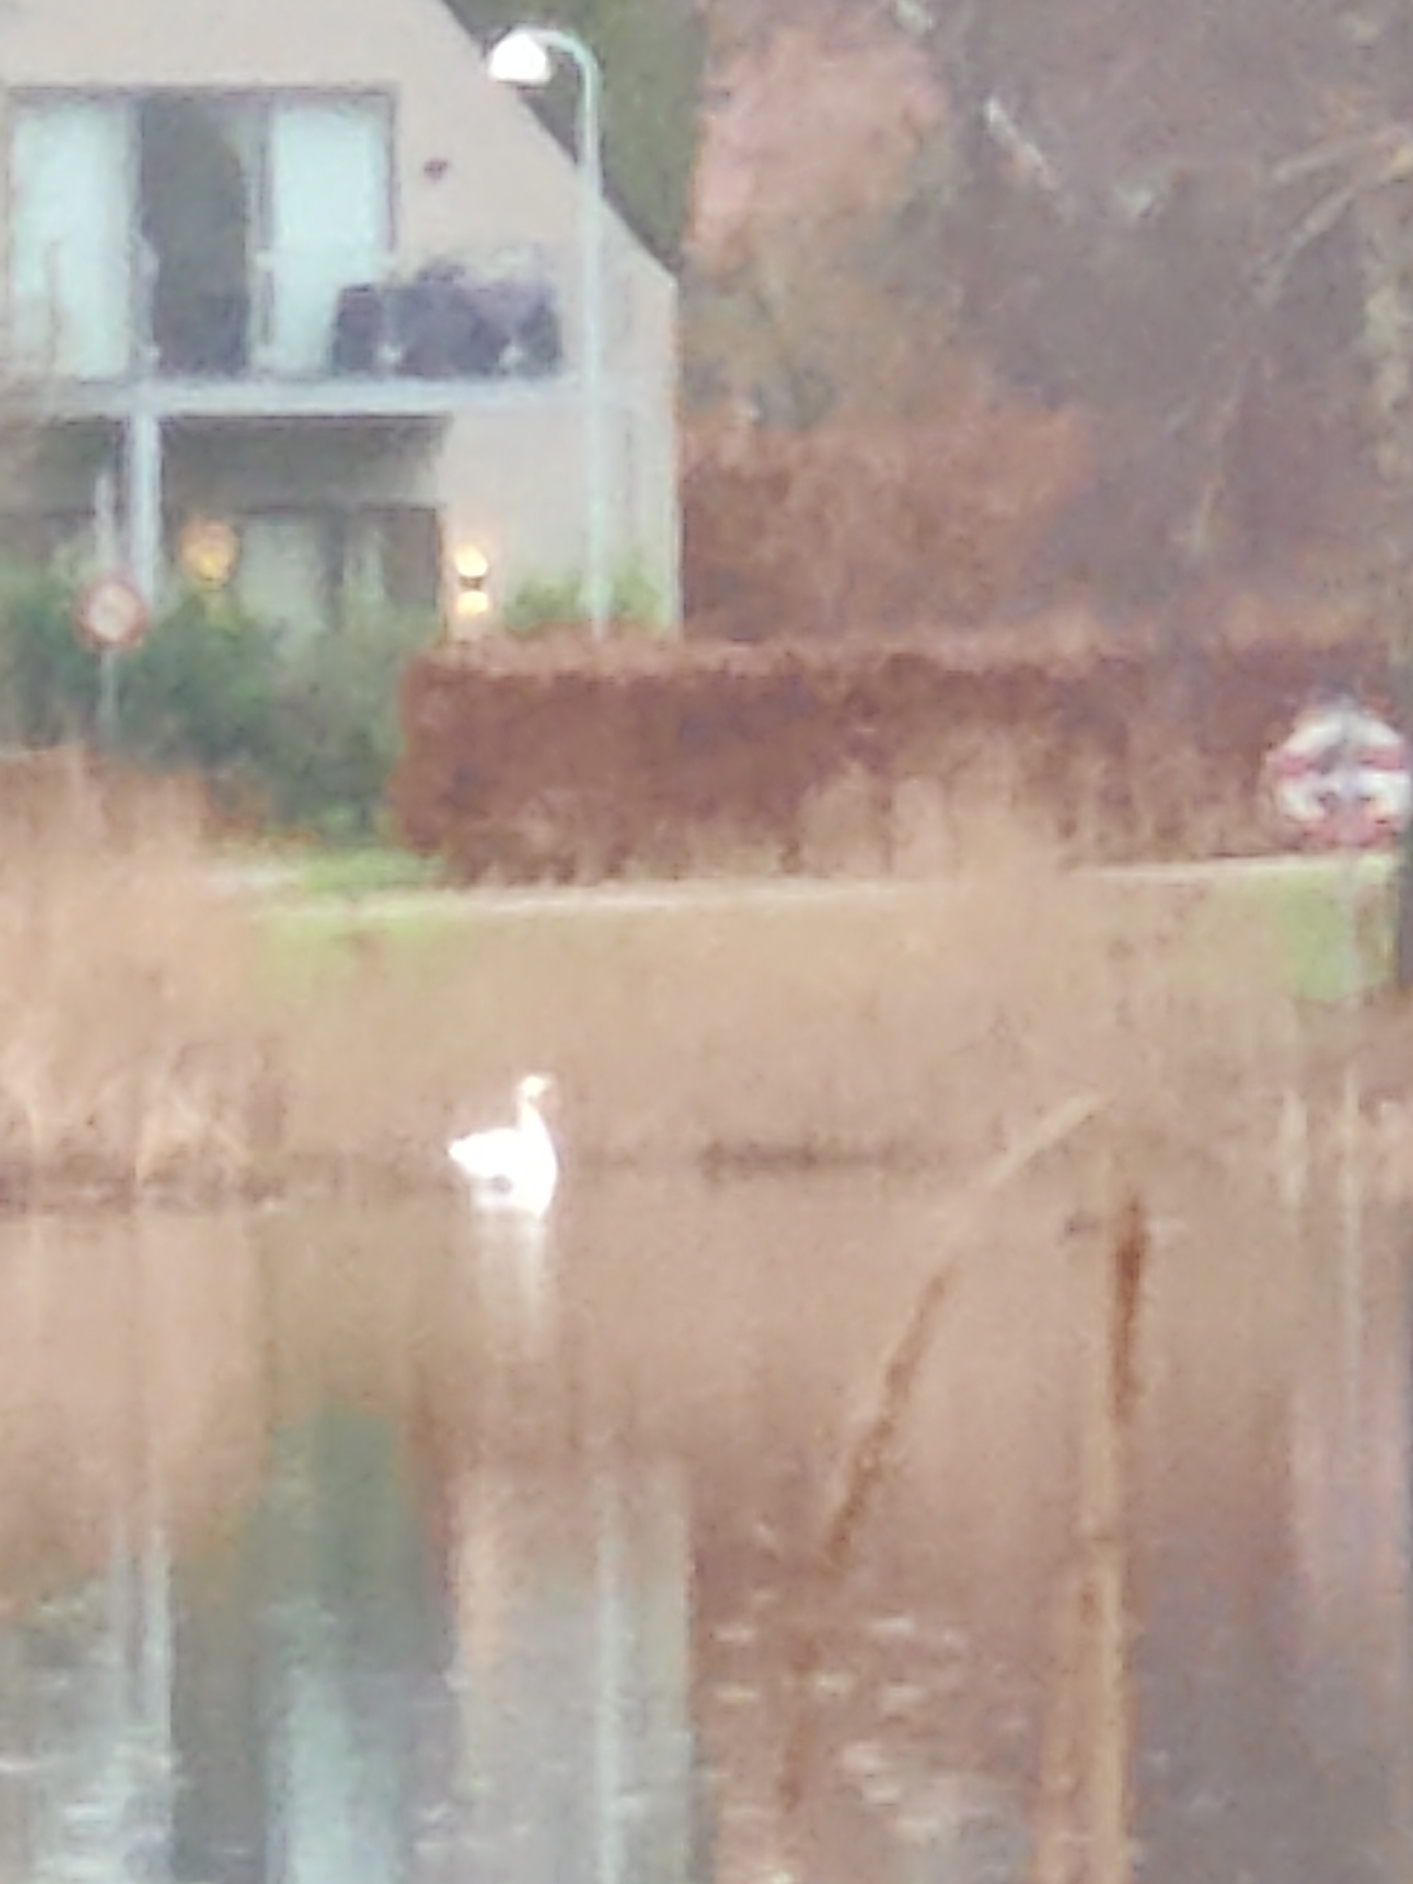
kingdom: Animalia
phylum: Chordata
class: Aves
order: Anseriformes
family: Anatidae
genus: Cygnus
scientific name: Cygnus olor
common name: Knopsvane
